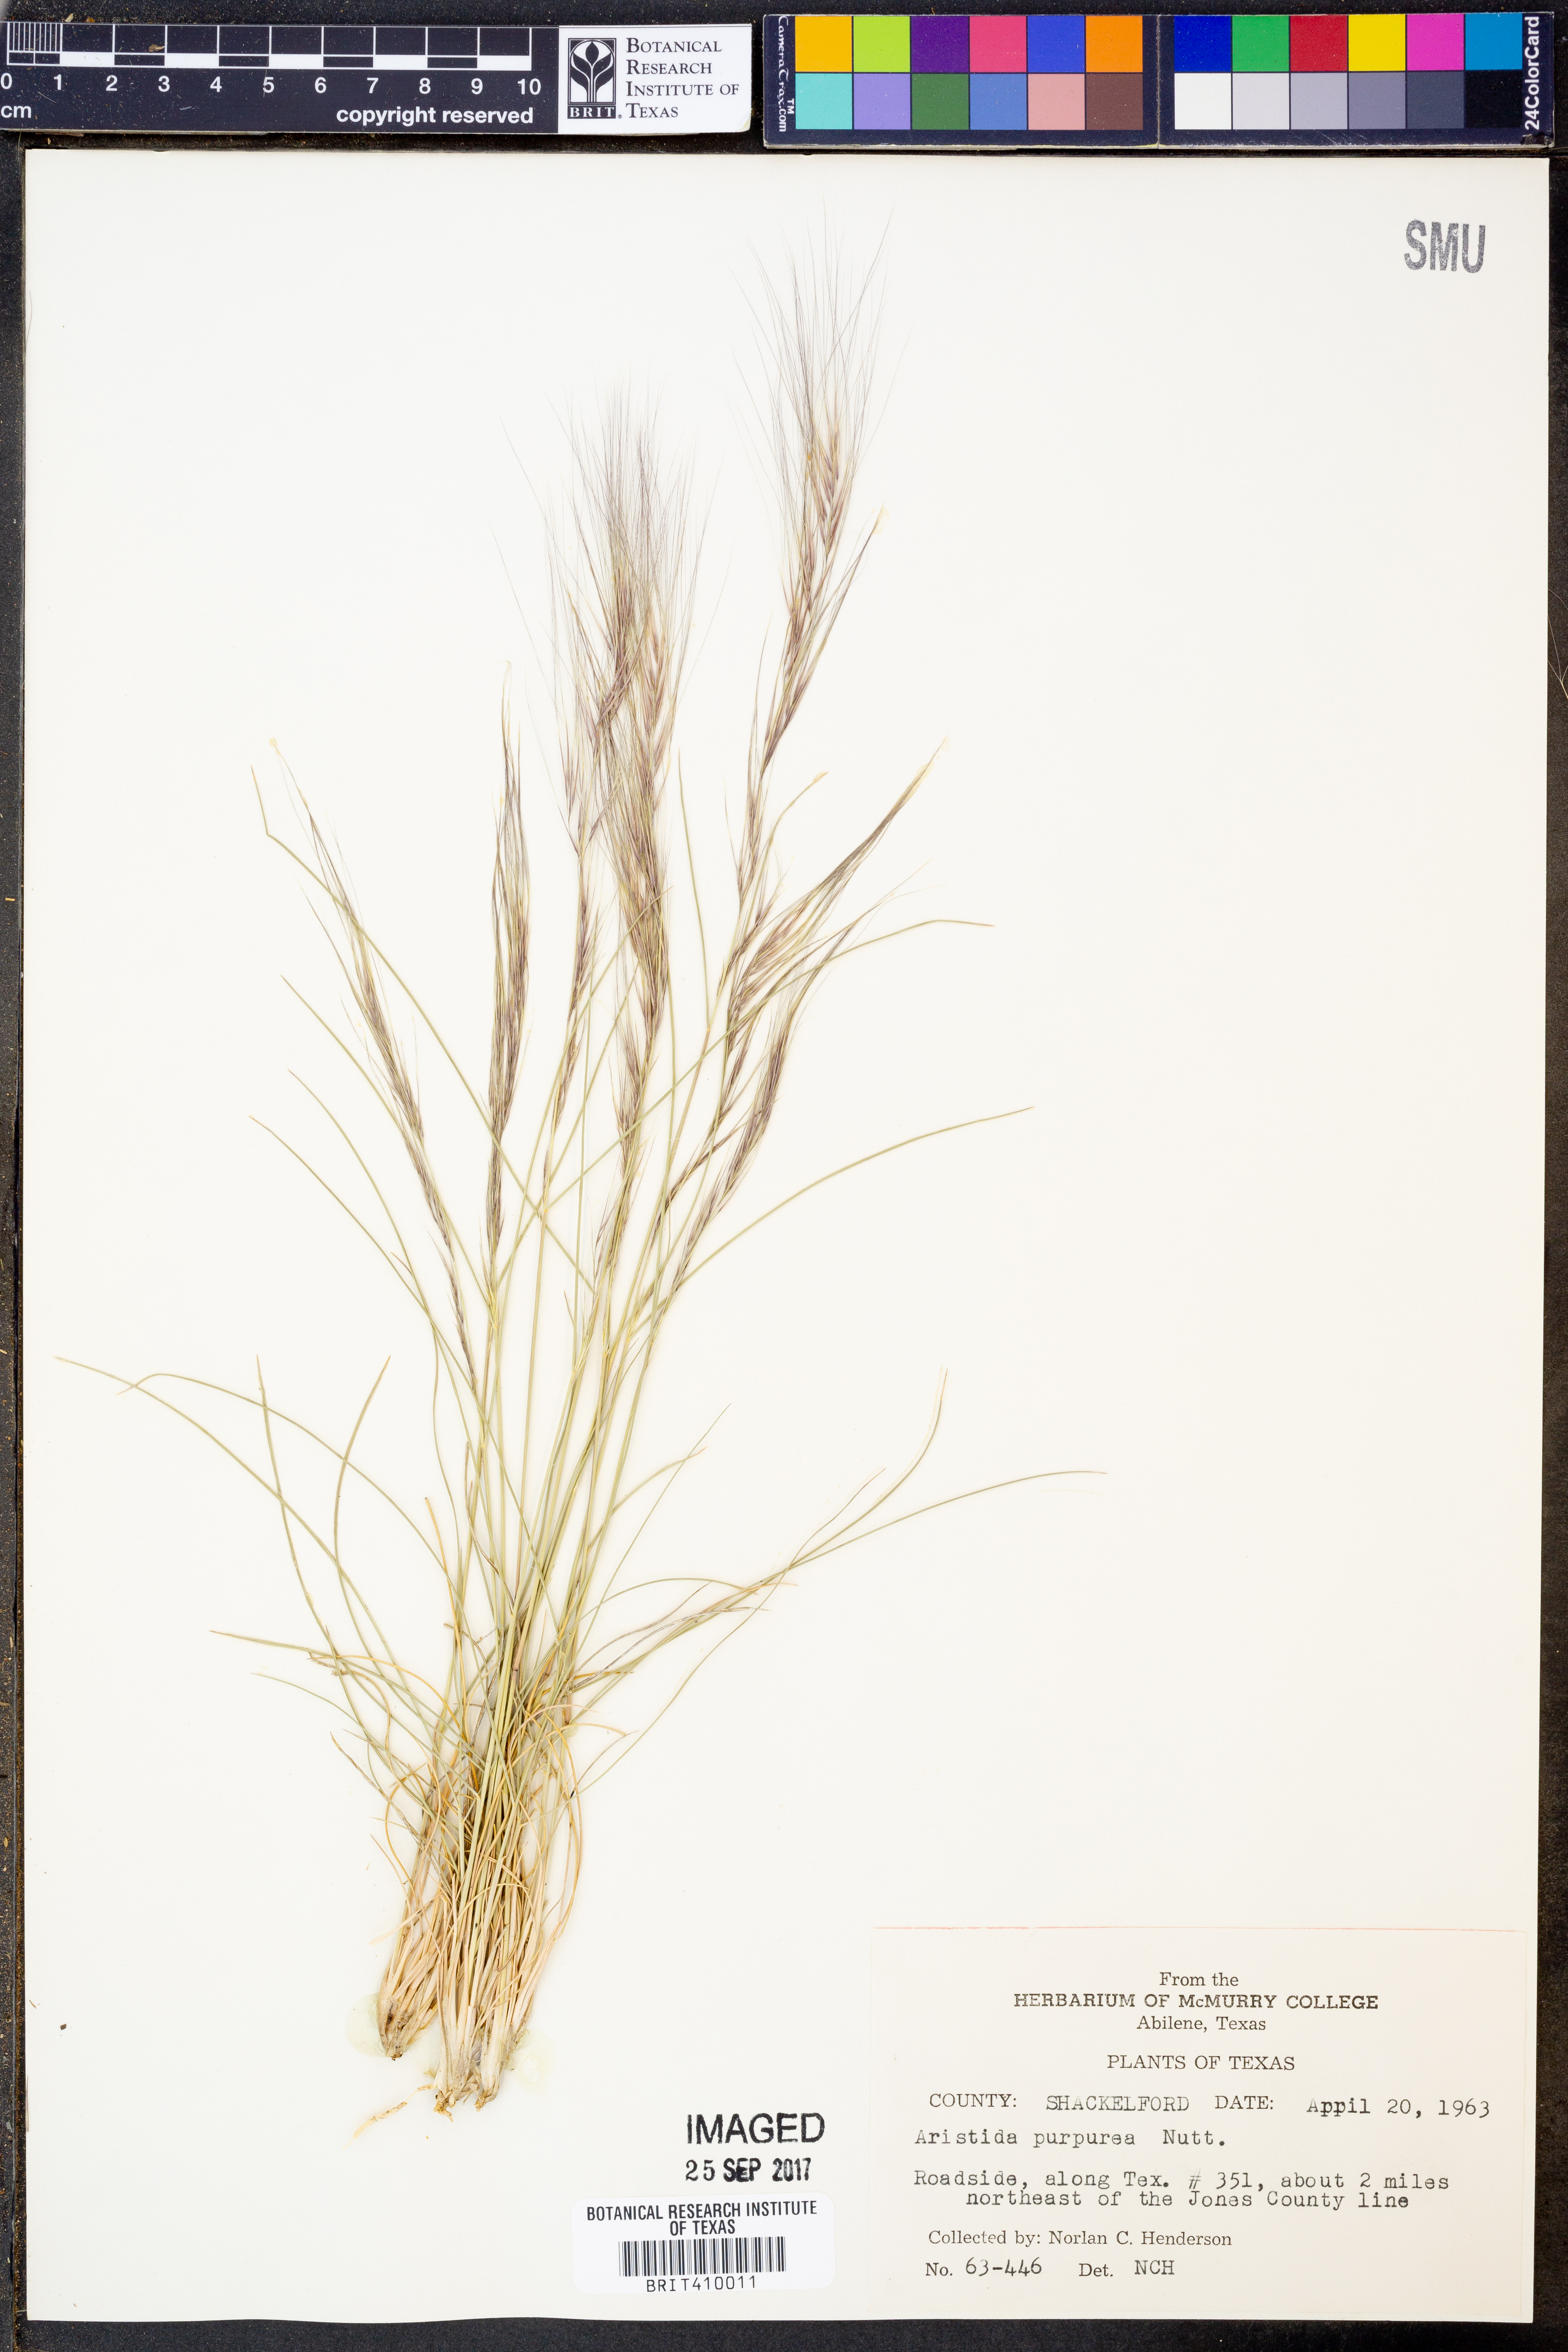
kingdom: Plantae
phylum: Tracheophyta
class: Liliopsida
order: Poales
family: Poaceae
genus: Aristida
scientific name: Aristida purpurea
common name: Purple threeawn
